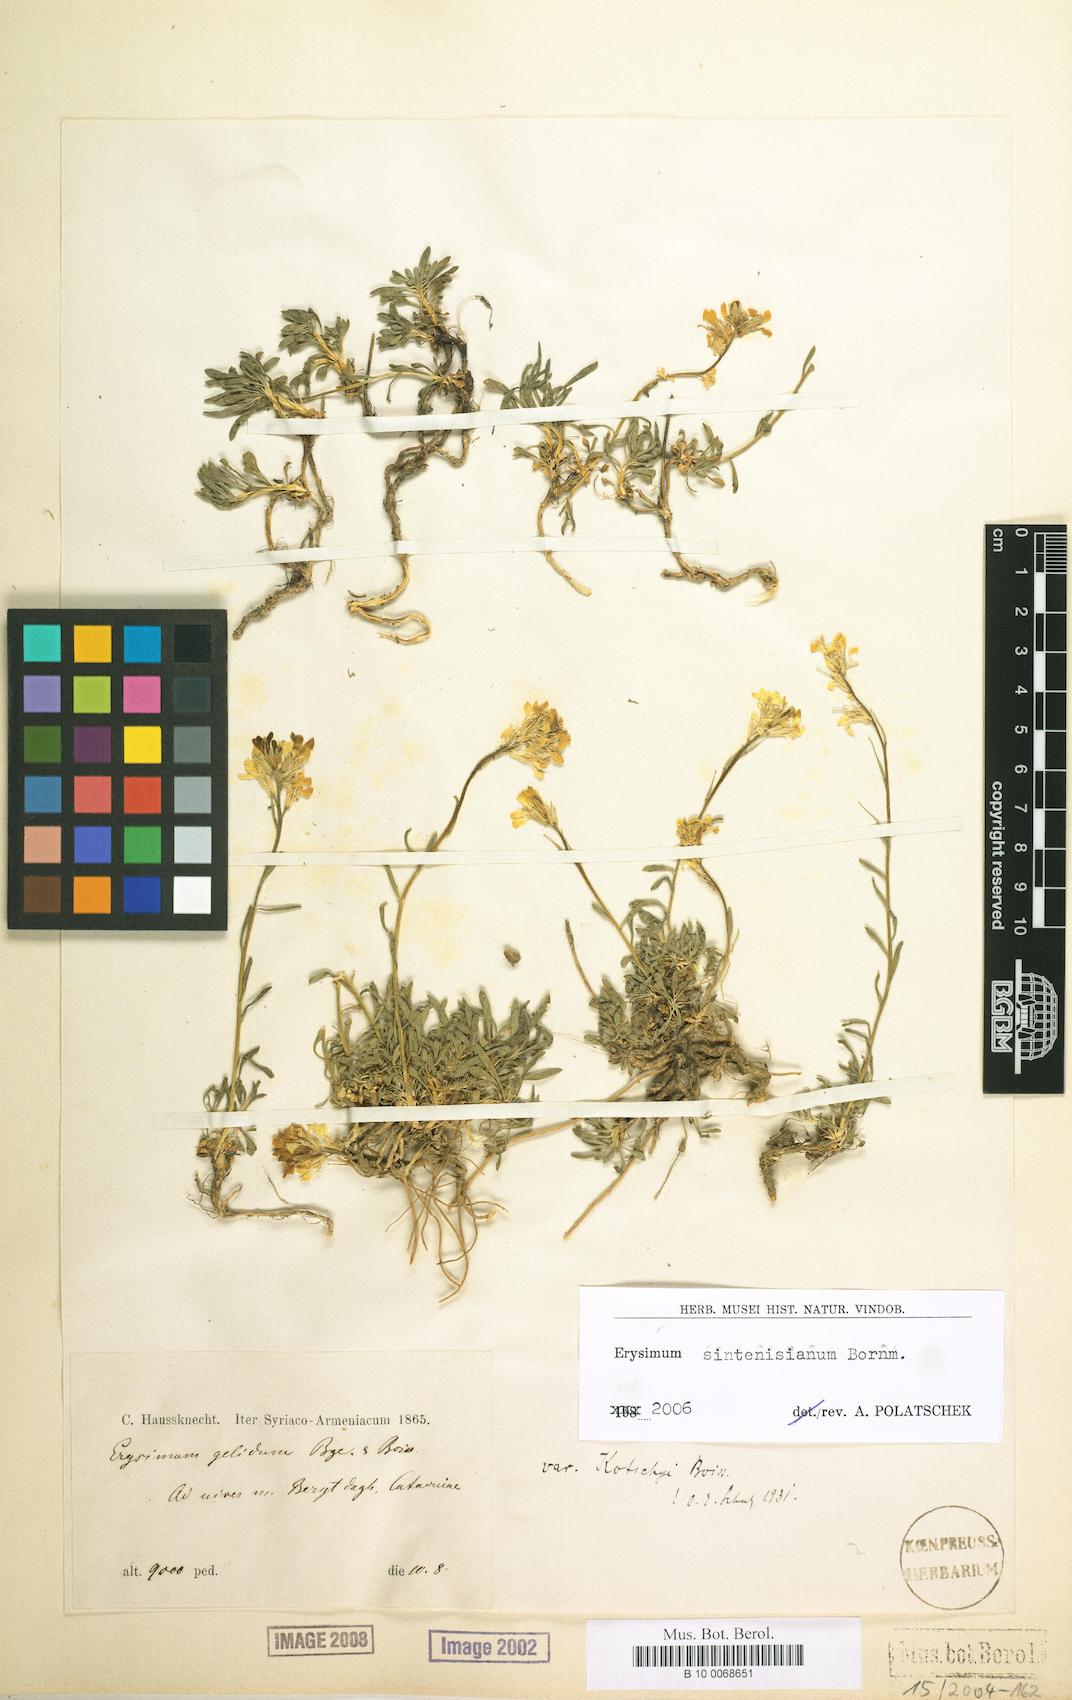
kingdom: Plantae
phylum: Tracheophyta
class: Magnoliopsida
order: Brassicales
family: Brassicaceae
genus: Erysimum
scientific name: Erysimum sintenisianum
